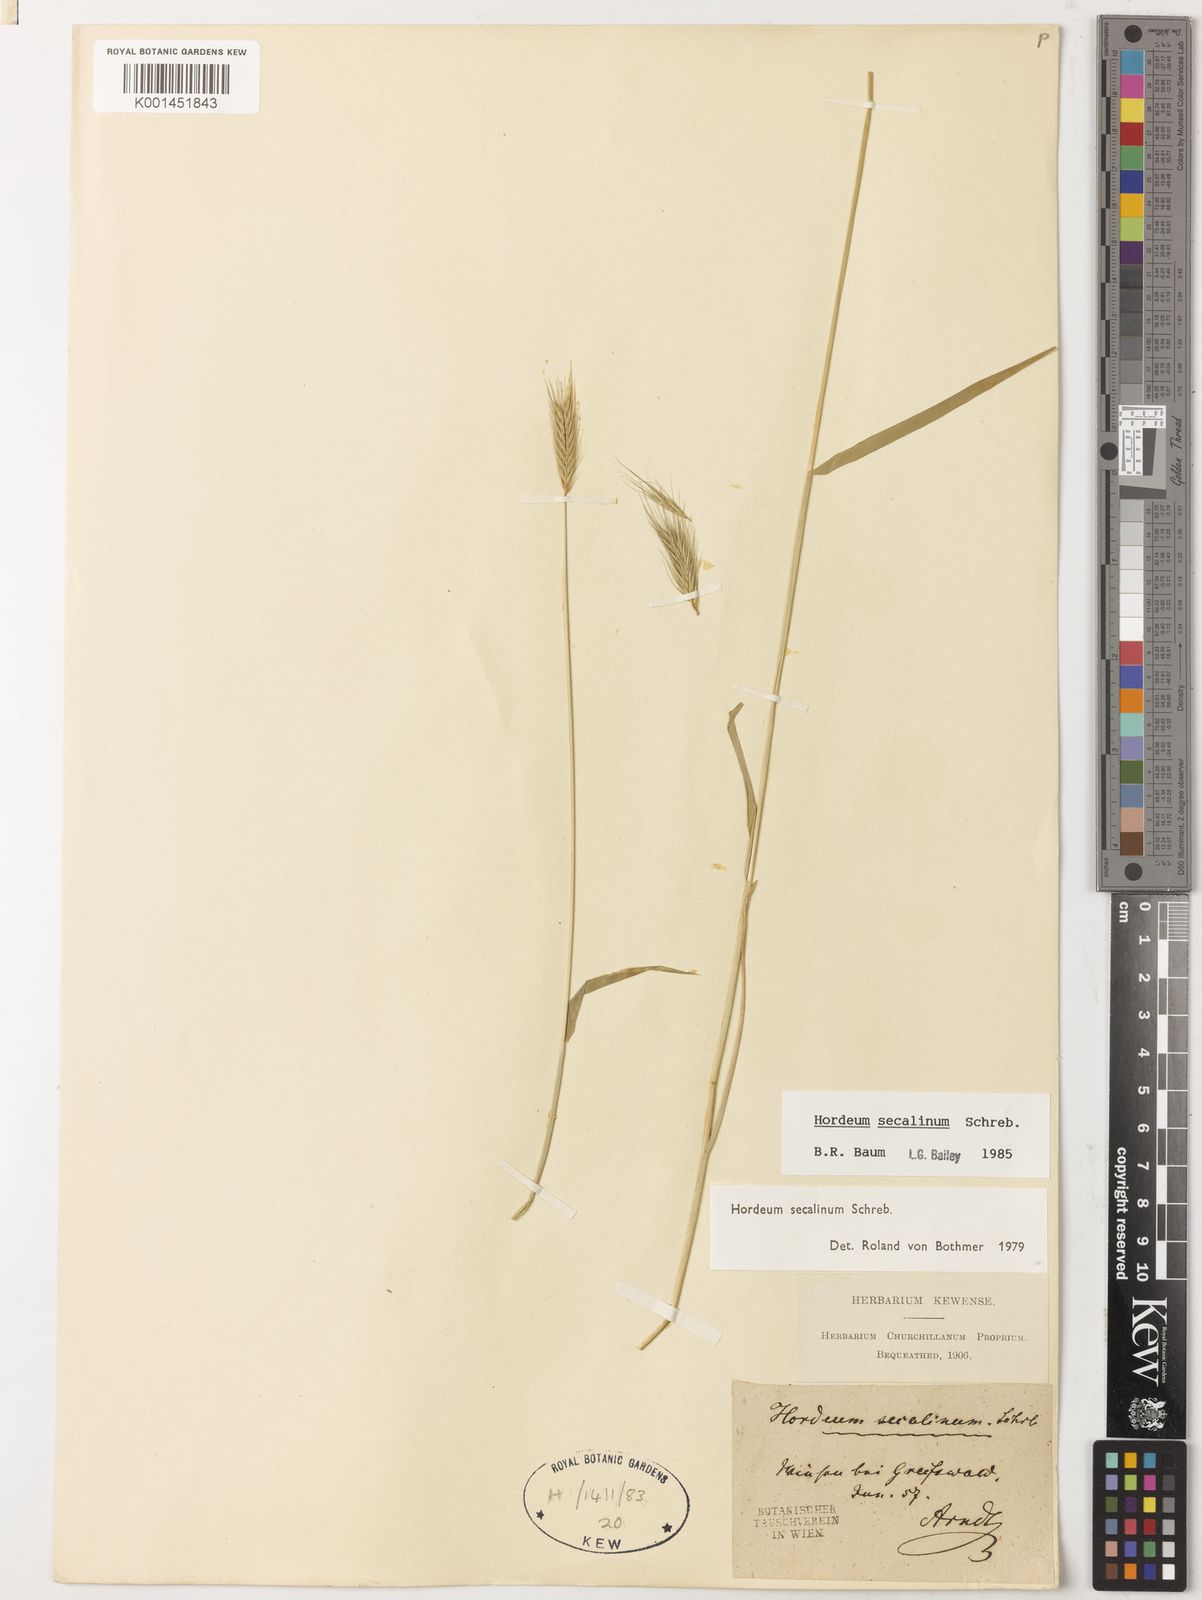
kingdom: Plantae
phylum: Tracheophyta
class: Liliopsida
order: Poales
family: Poaceae
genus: Hordeum
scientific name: Hordeum secalinum
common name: Meadow barley
